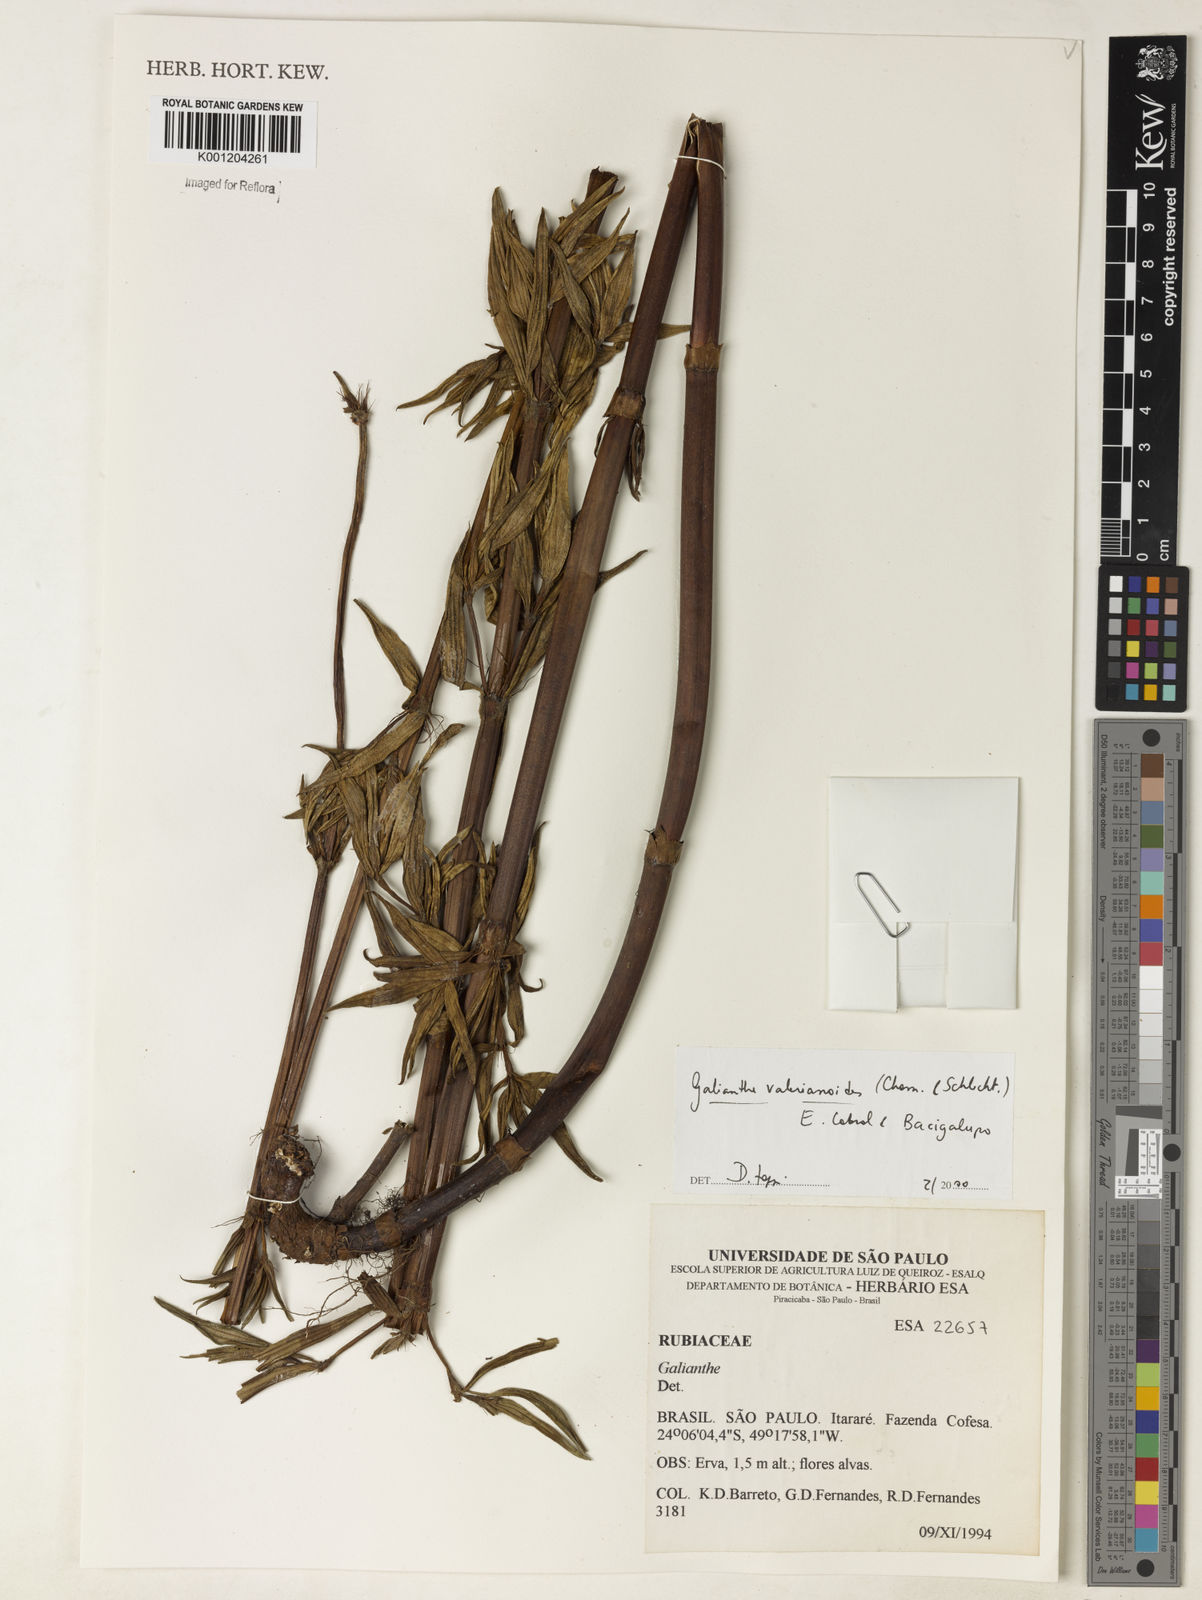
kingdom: Plantae
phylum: Tracheophyta
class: Magnoliopsida
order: Gentianales
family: Rubiaceae
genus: Galianthe
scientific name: Galianthe valerianoides
